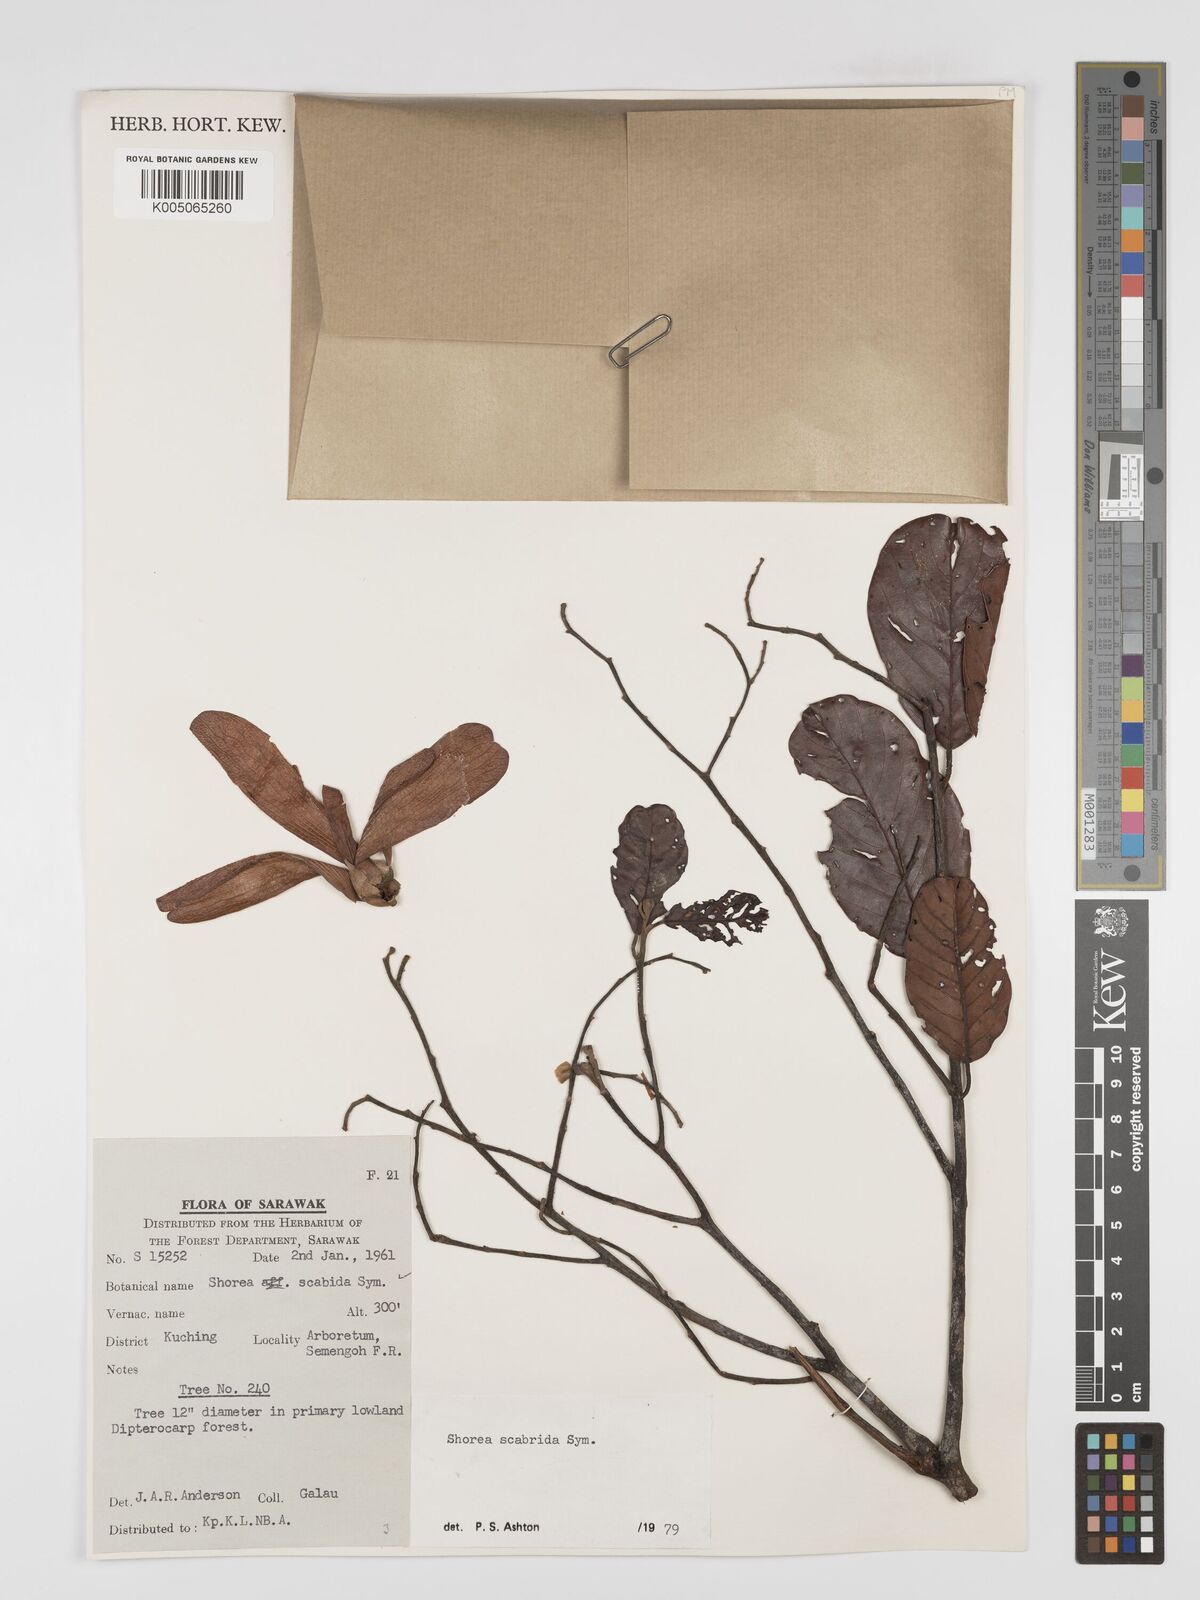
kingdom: Plantae
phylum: Tracheophyta
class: Magnoliopsida
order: Malvales
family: Dipterocarpaceae
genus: Shorea
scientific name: Shorea scabrida
